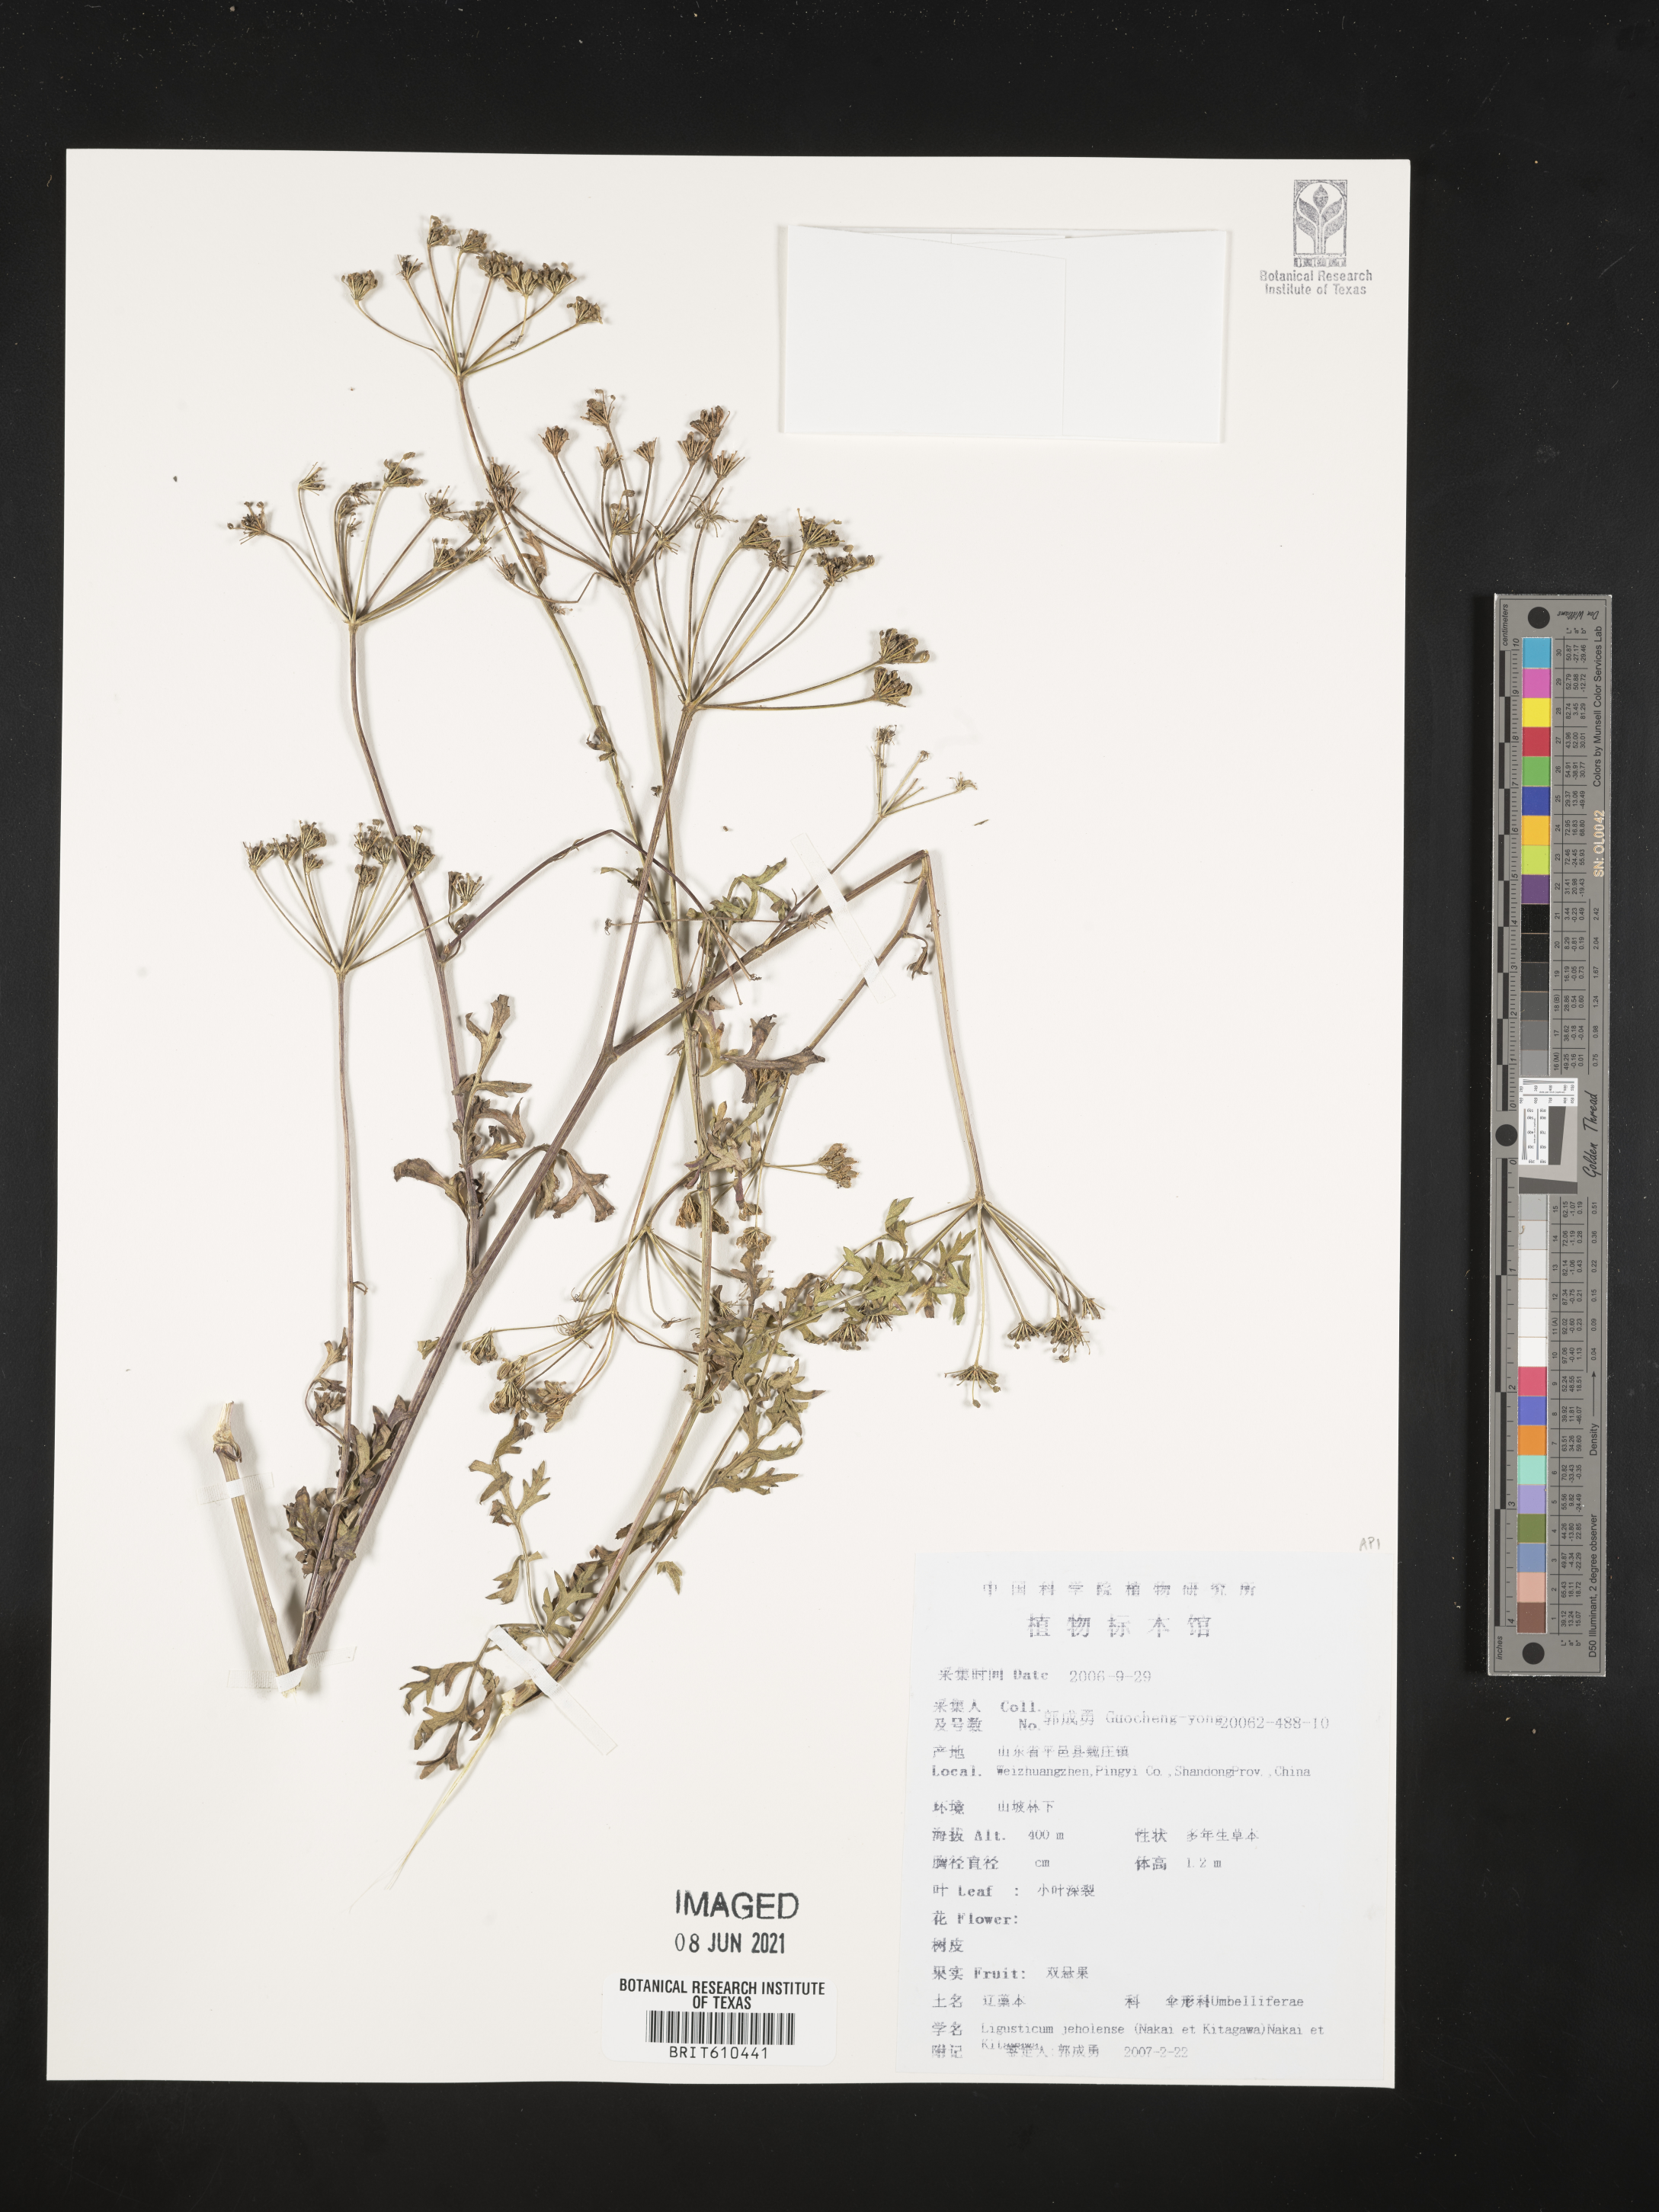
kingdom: Plantae
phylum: Tracheophyta
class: Magnoliopsida
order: Apiales
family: Apiaceae
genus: Conioselinum
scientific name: Conioselinum smithii
